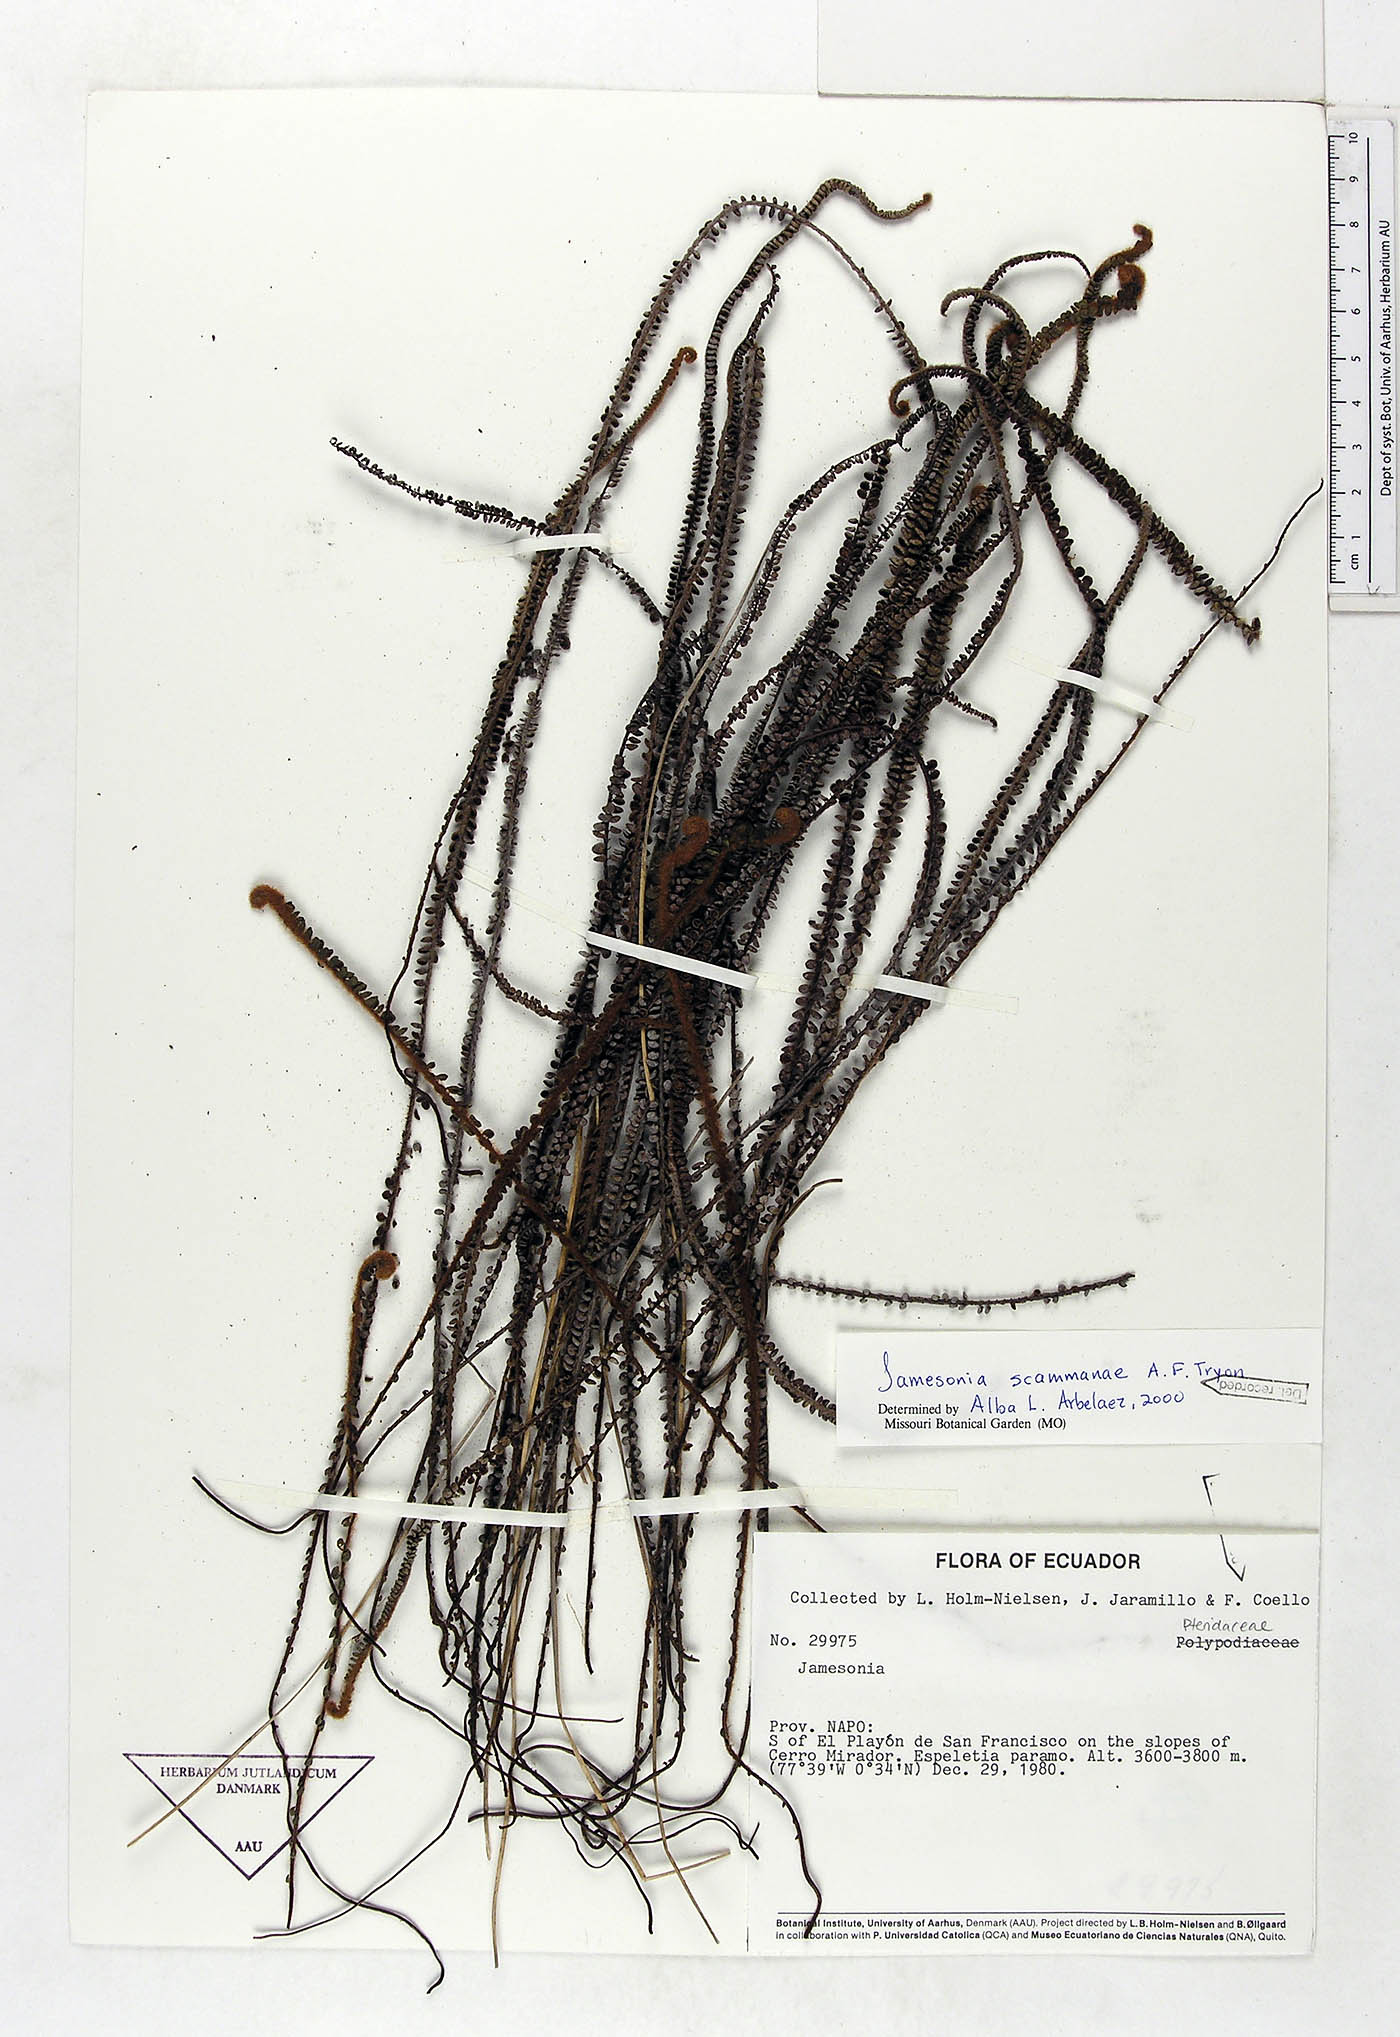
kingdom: Plantae
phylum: Tracheophyta
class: Polypodiopsida
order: Polypodiales
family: Pteridaceae
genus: Jamesonia
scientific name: Jamesonia scammanae
